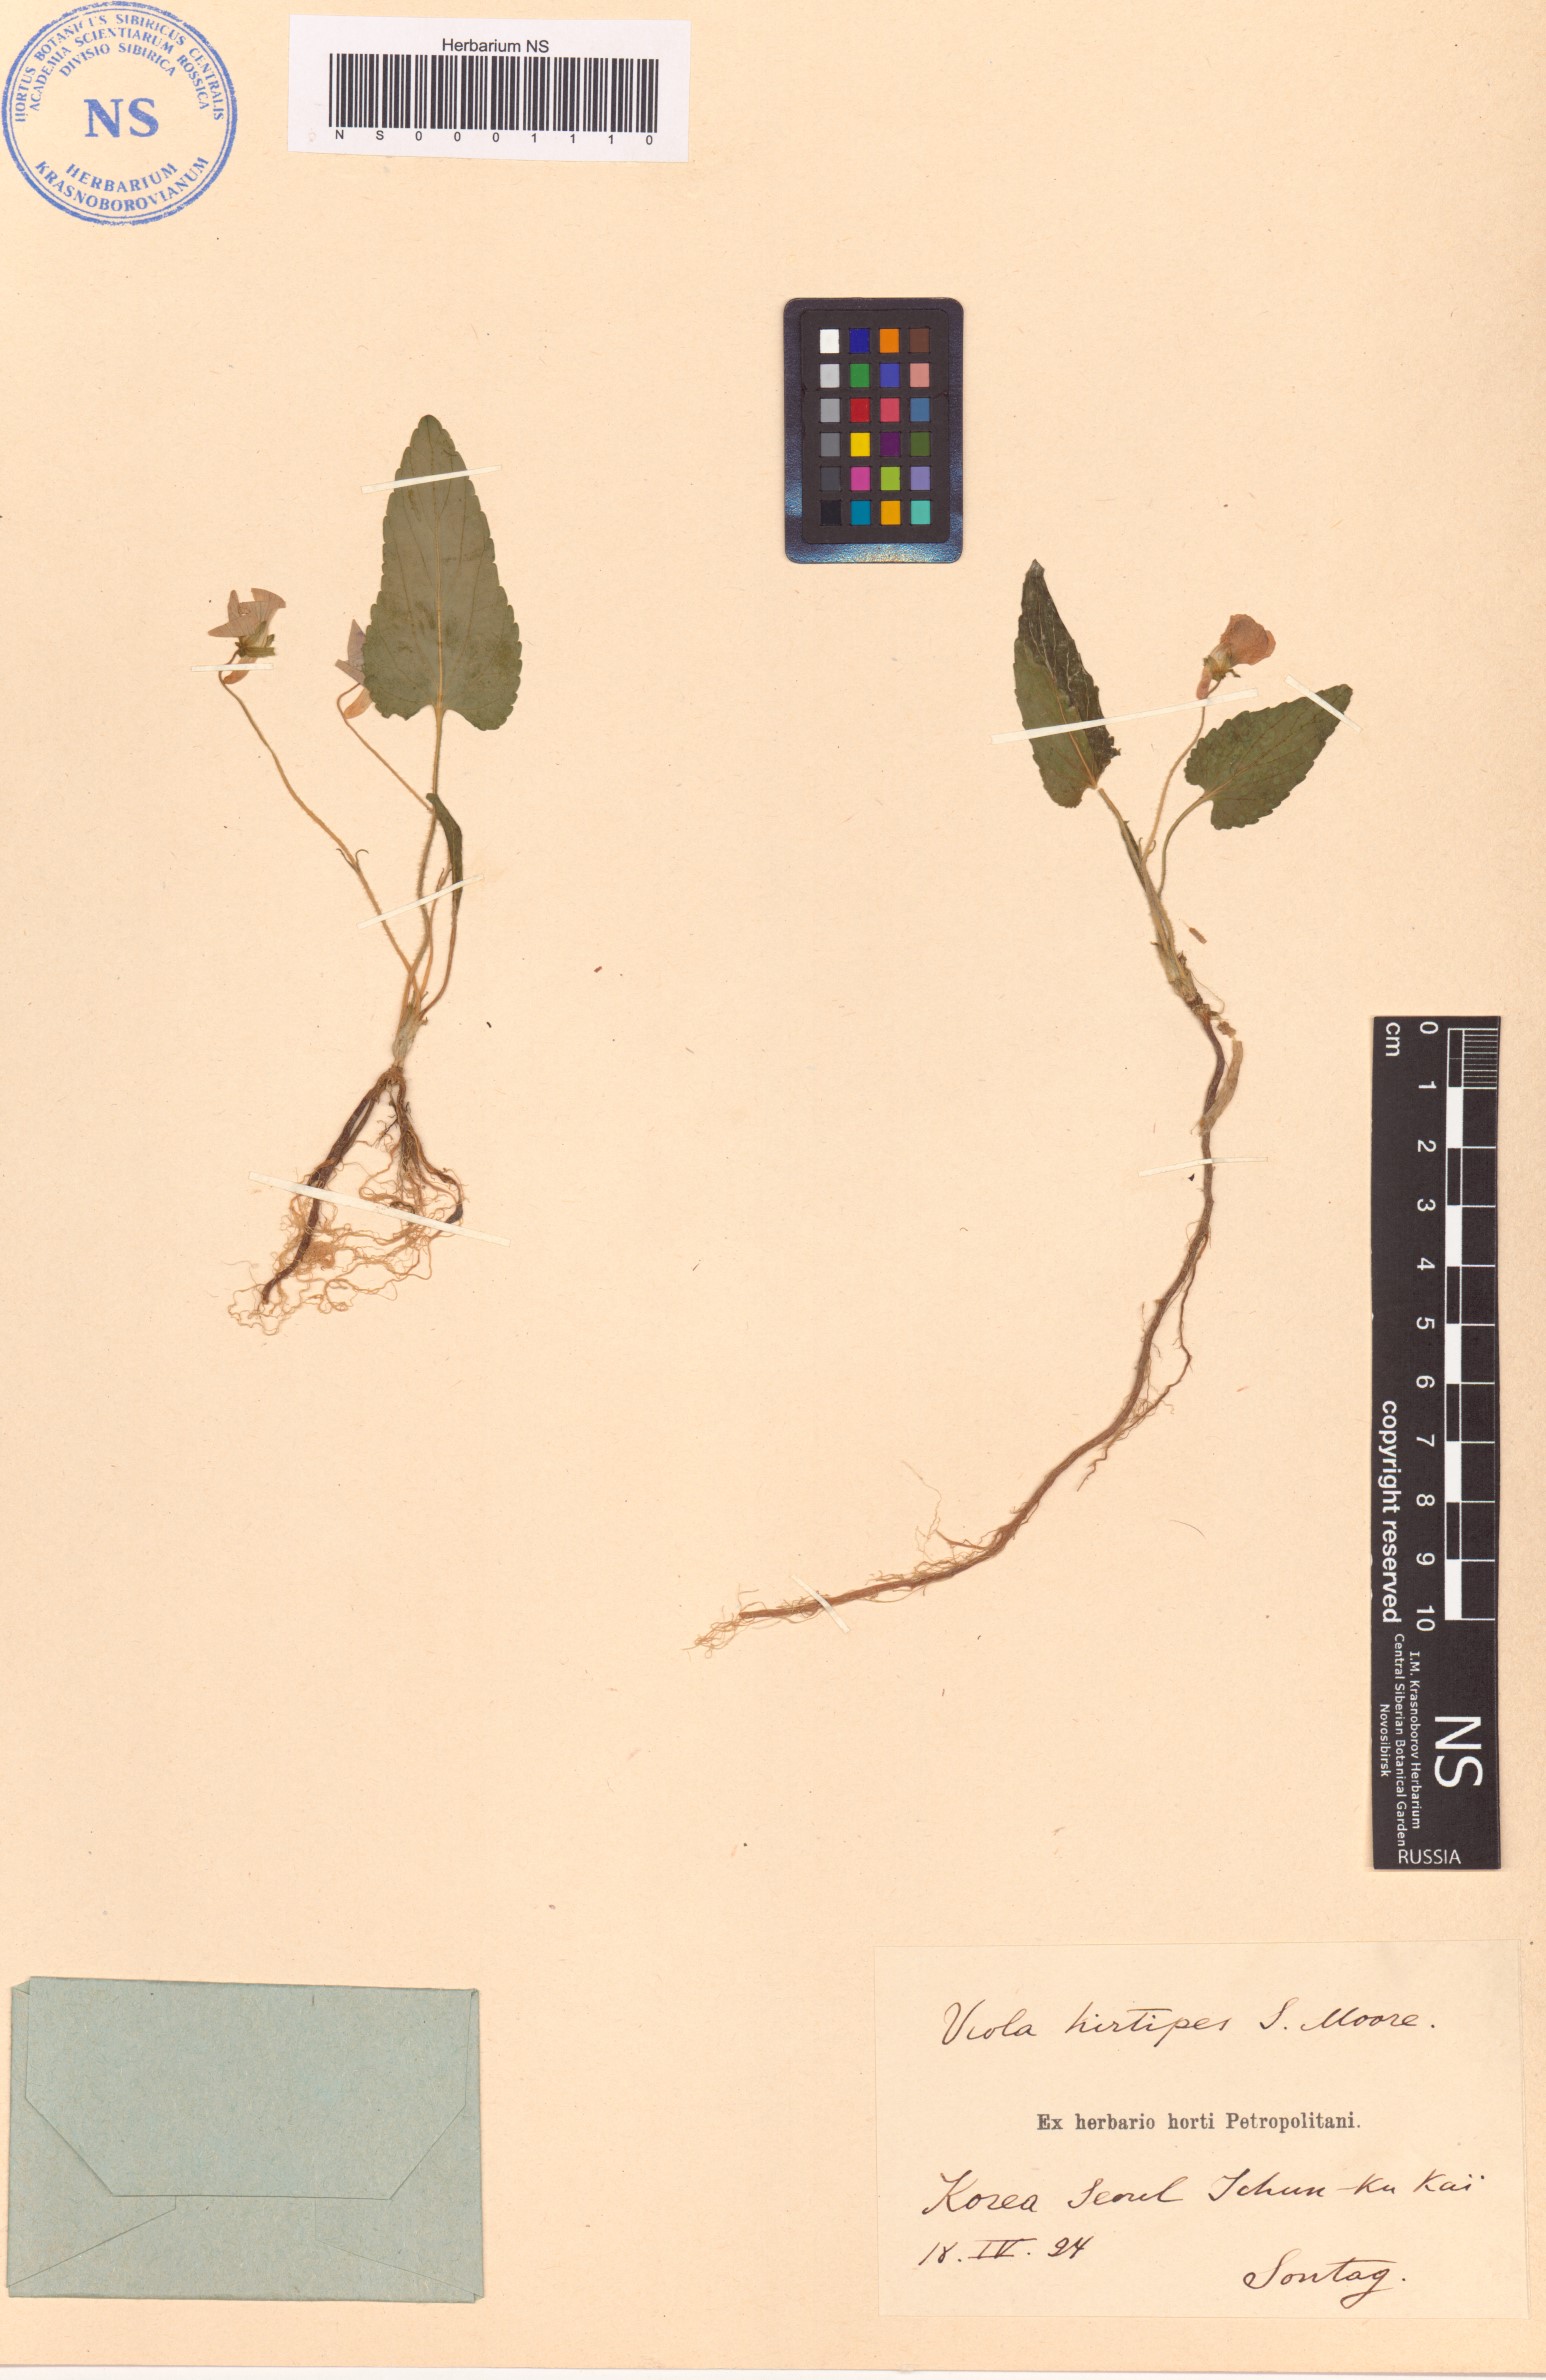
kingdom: Plantae
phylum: Tracheophyta
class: Magnoliopsida
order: Malpighiales
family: Violaceae
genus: Viola
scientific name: Viola hirtipes
